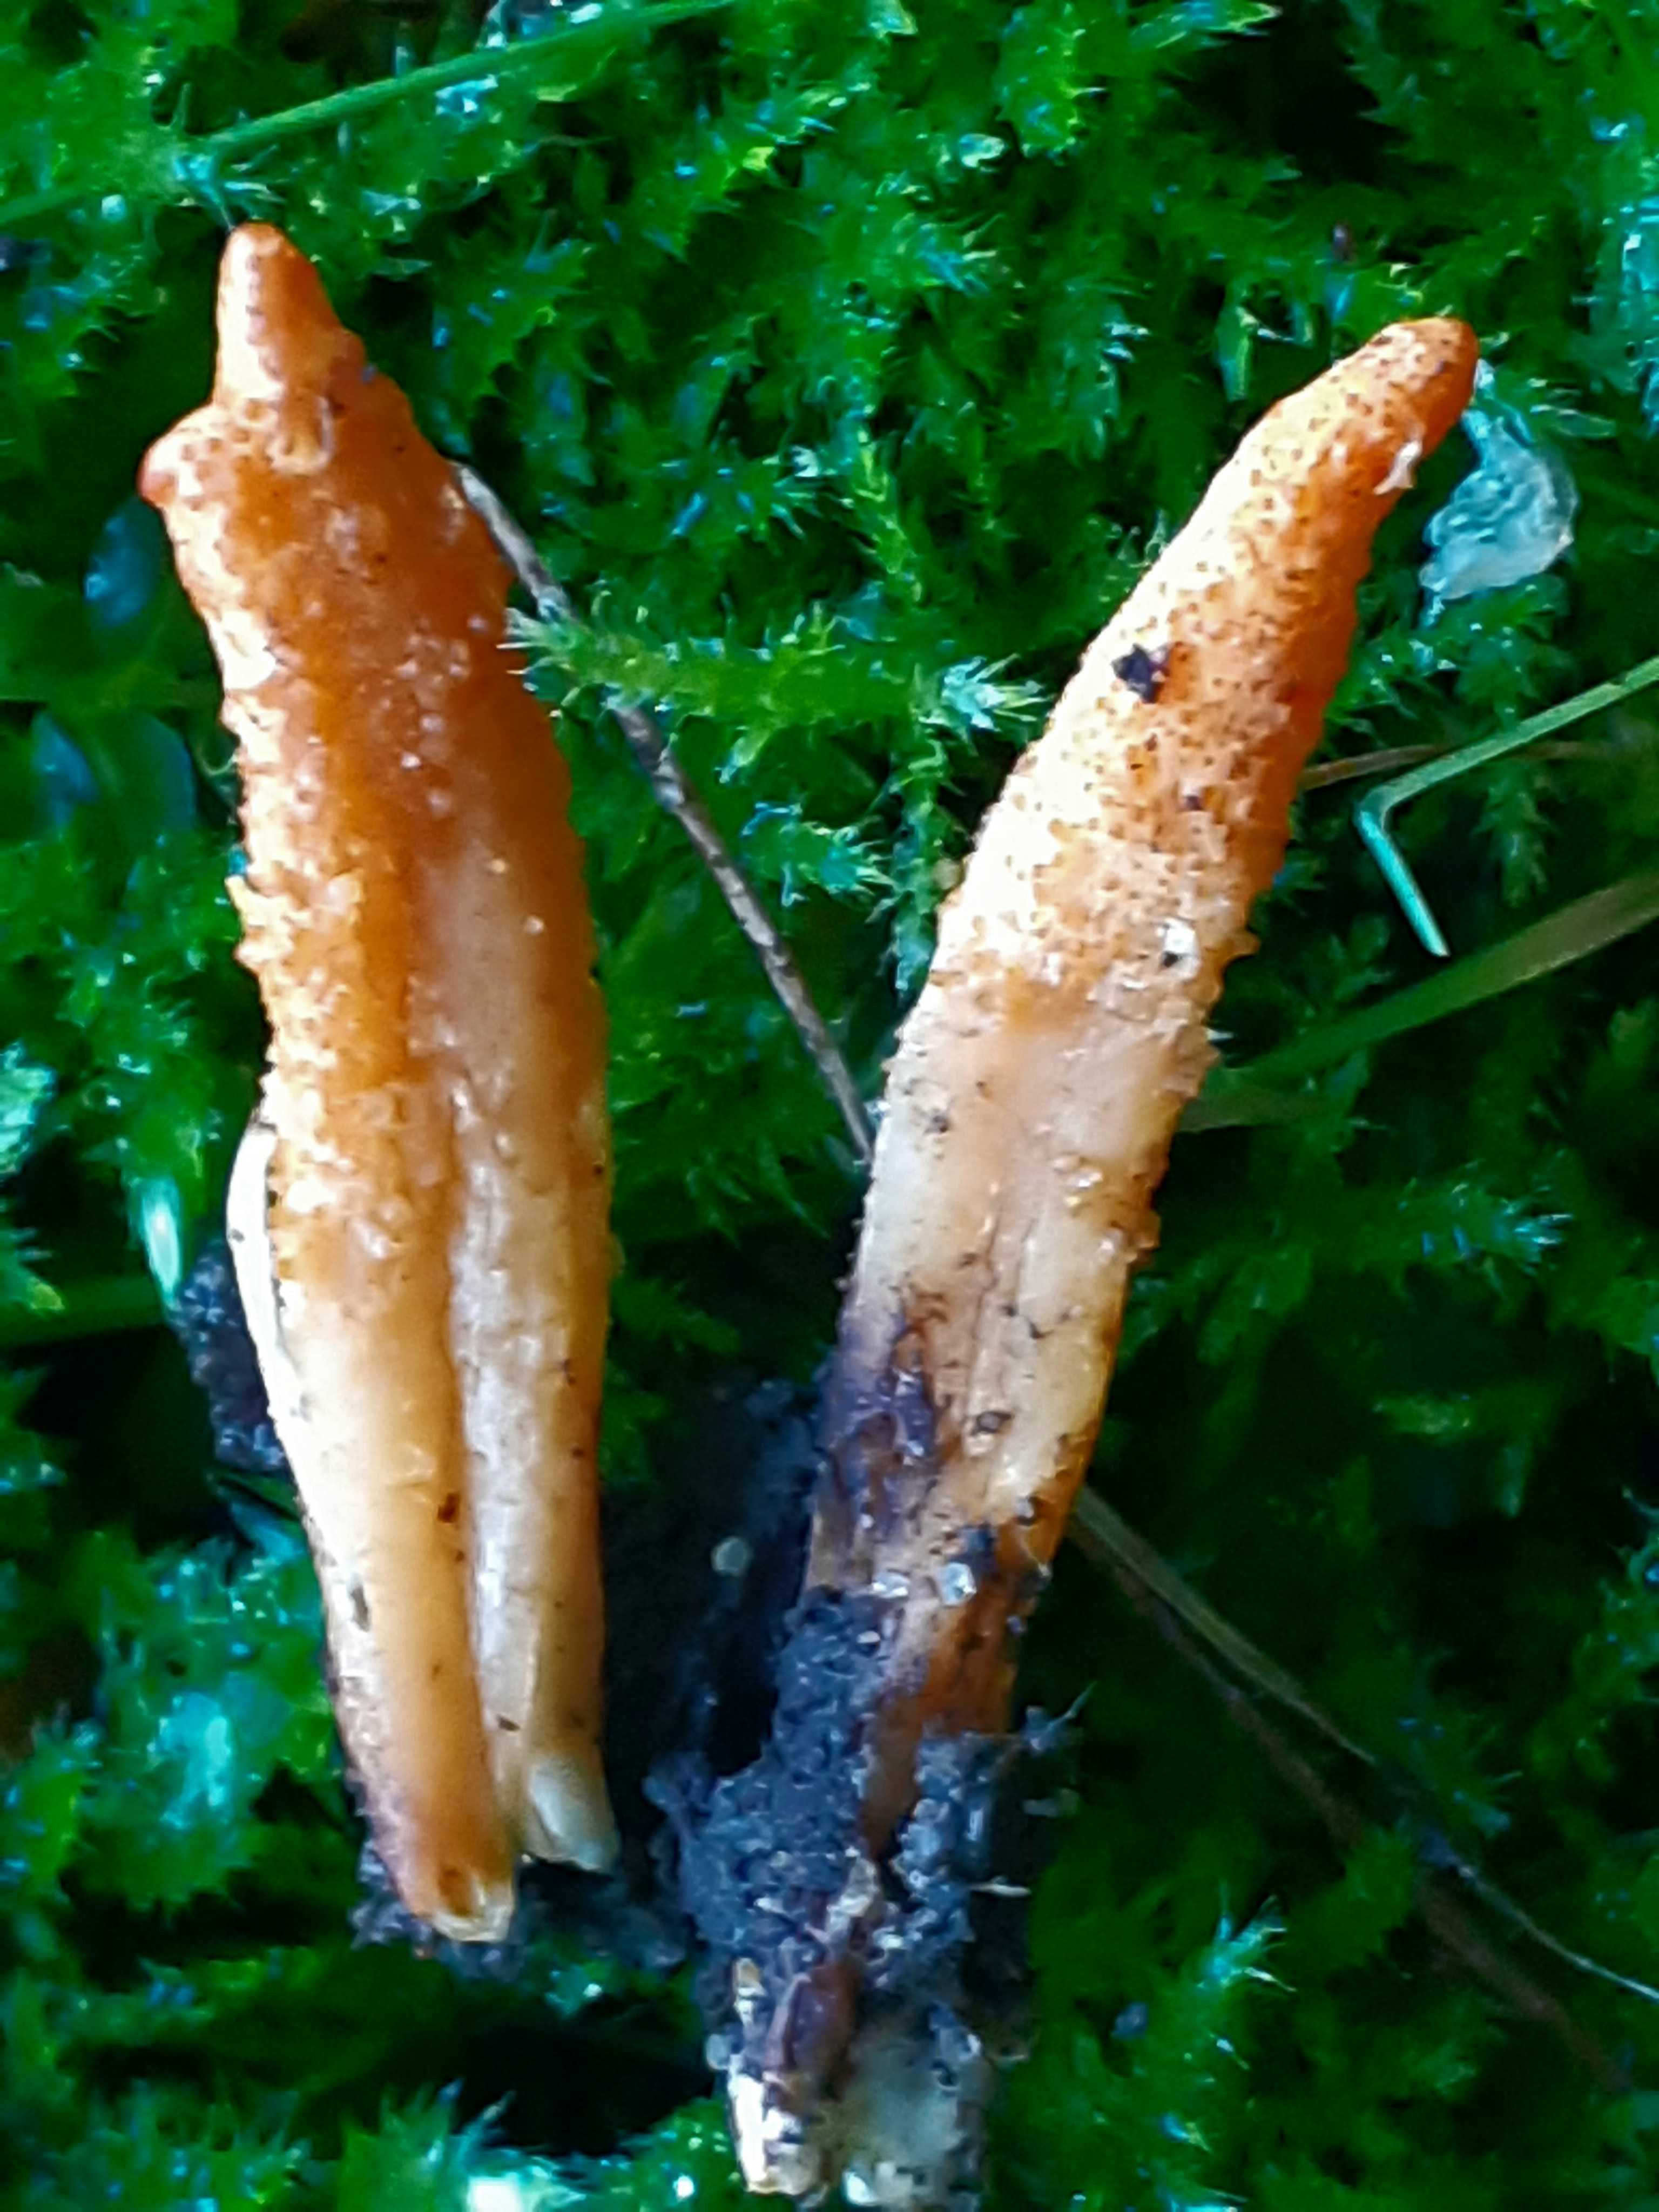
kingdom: Fungi
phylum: Ascomycota
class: Sordariomycetes
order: Hypocreales
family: Cordycipitaceae
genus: Cordyceps
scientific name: Cordyceps militaris
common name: puppe-snyltekølle
